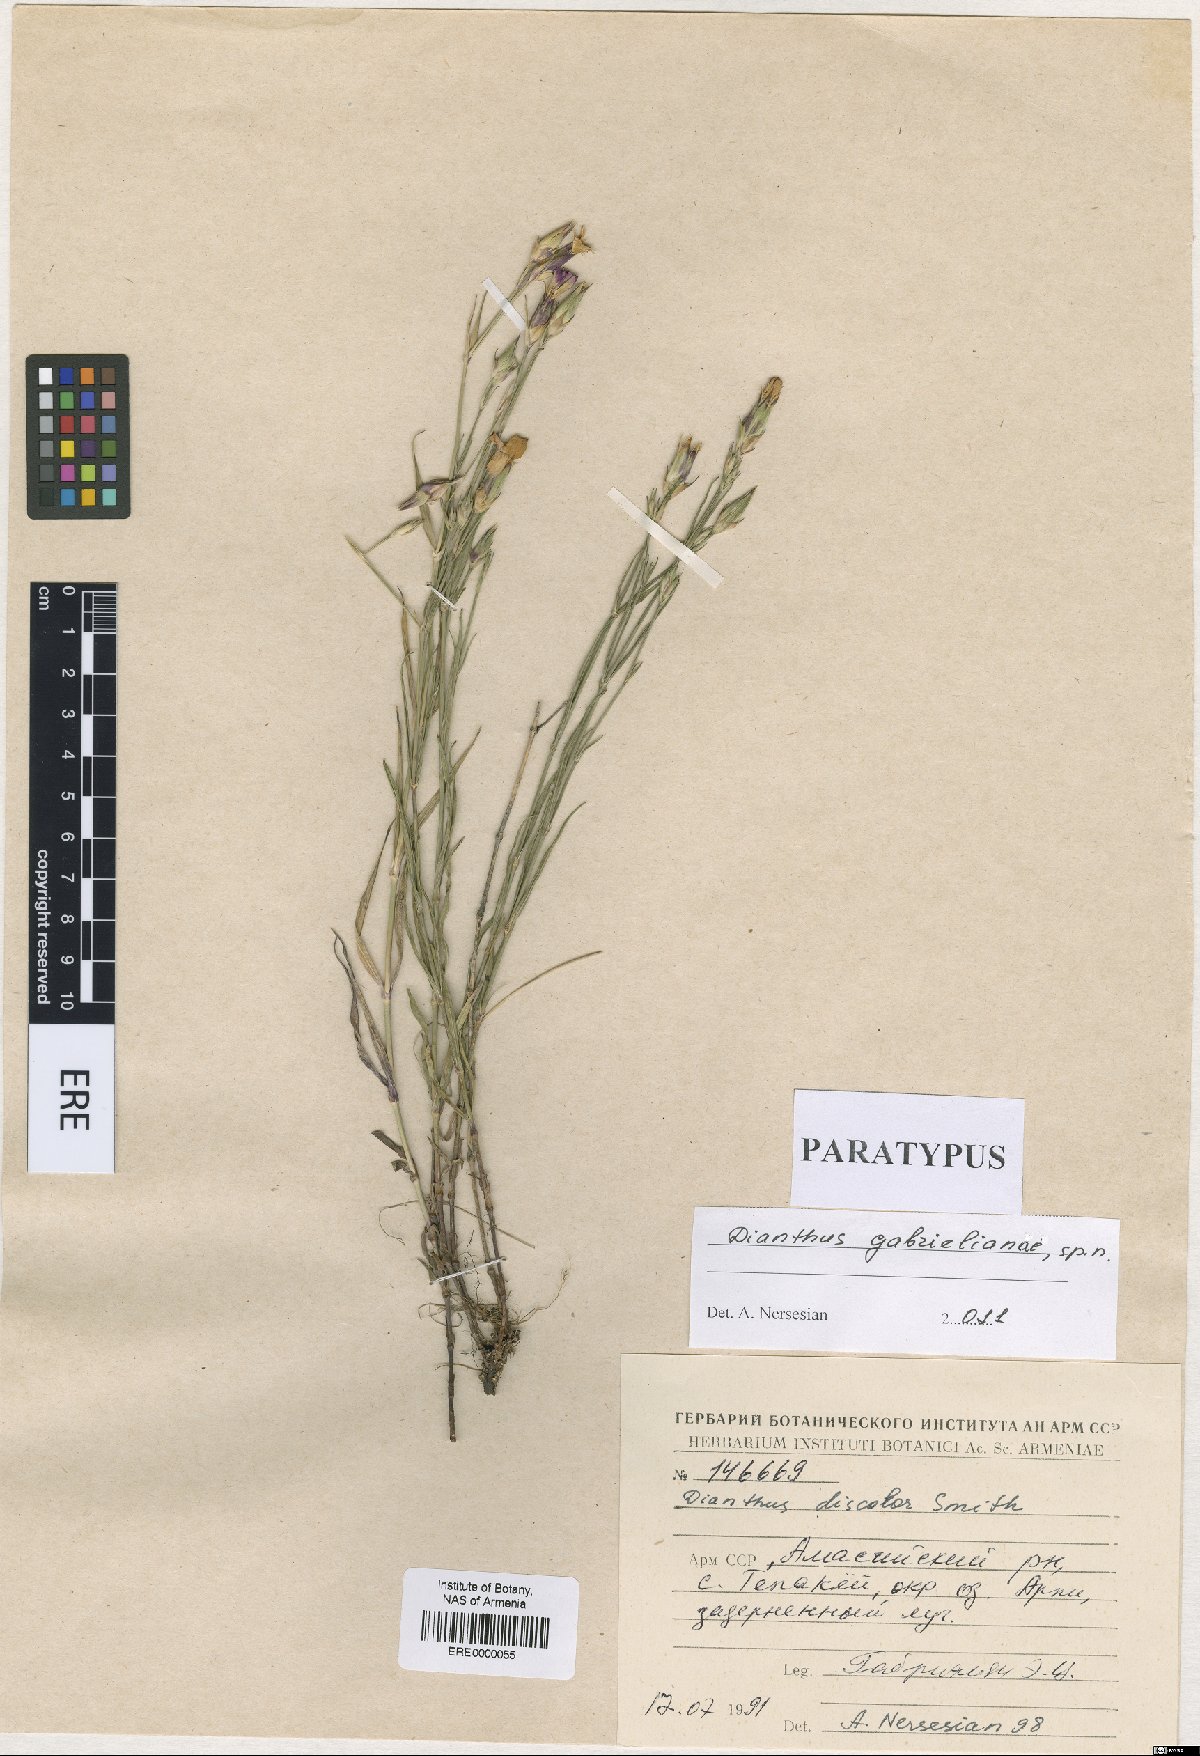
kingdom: Plantae
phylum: Tracheophyta
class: Magnoliopsida
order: Caryophyllales
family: Caryophyllaceae
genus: Dianthus
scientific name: Dianthus gabrielianae
